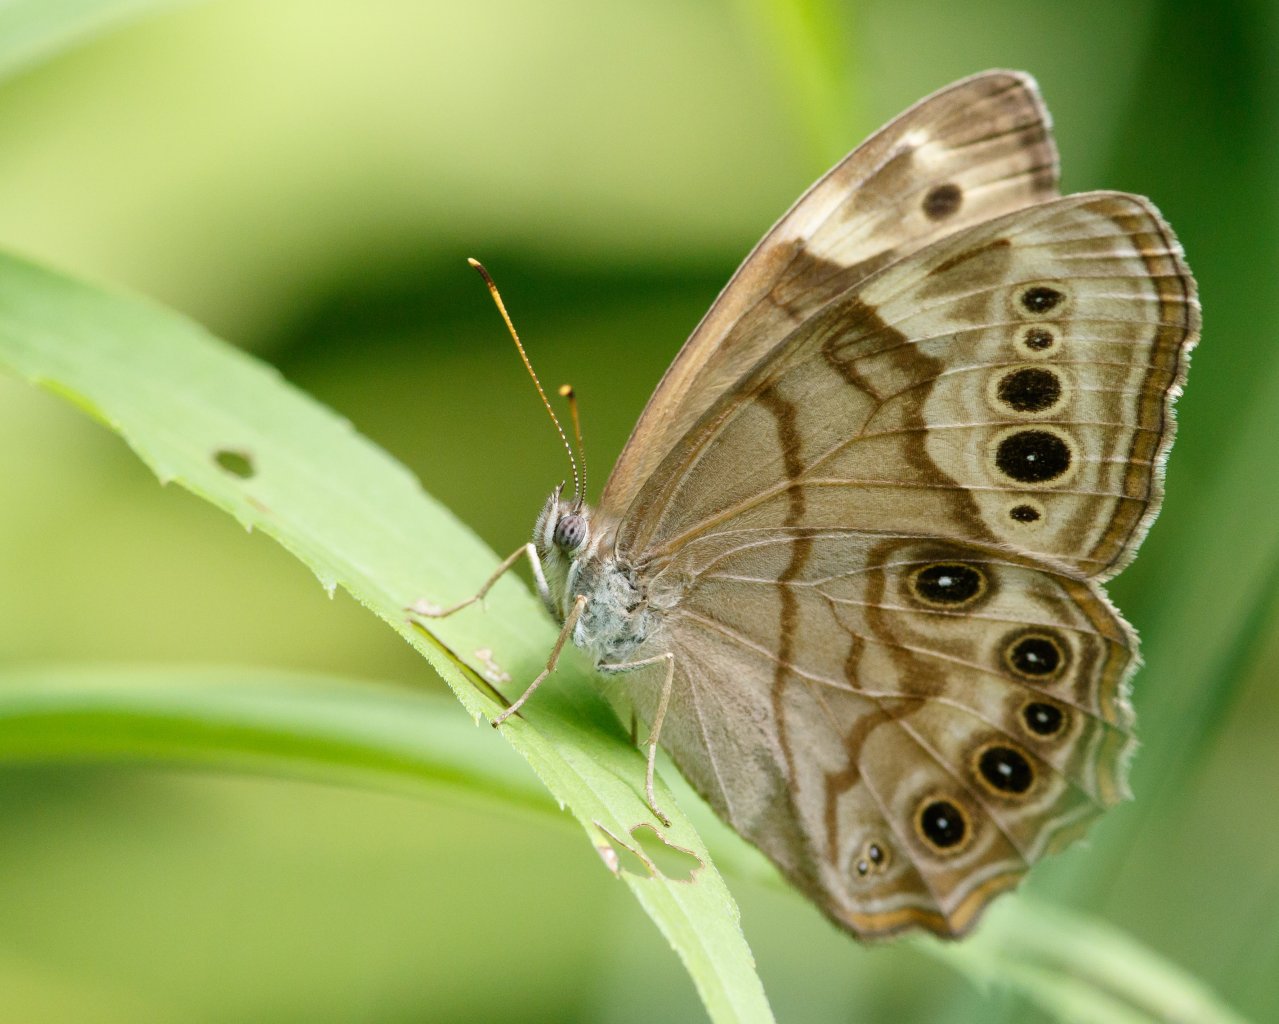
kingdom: Animalia
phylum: Arthropoda
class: Insecta
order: Lepidoptera
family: Nymphalidae
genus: Lethe
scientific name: Lethe anthedon
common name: Northern Pearly-Eye
